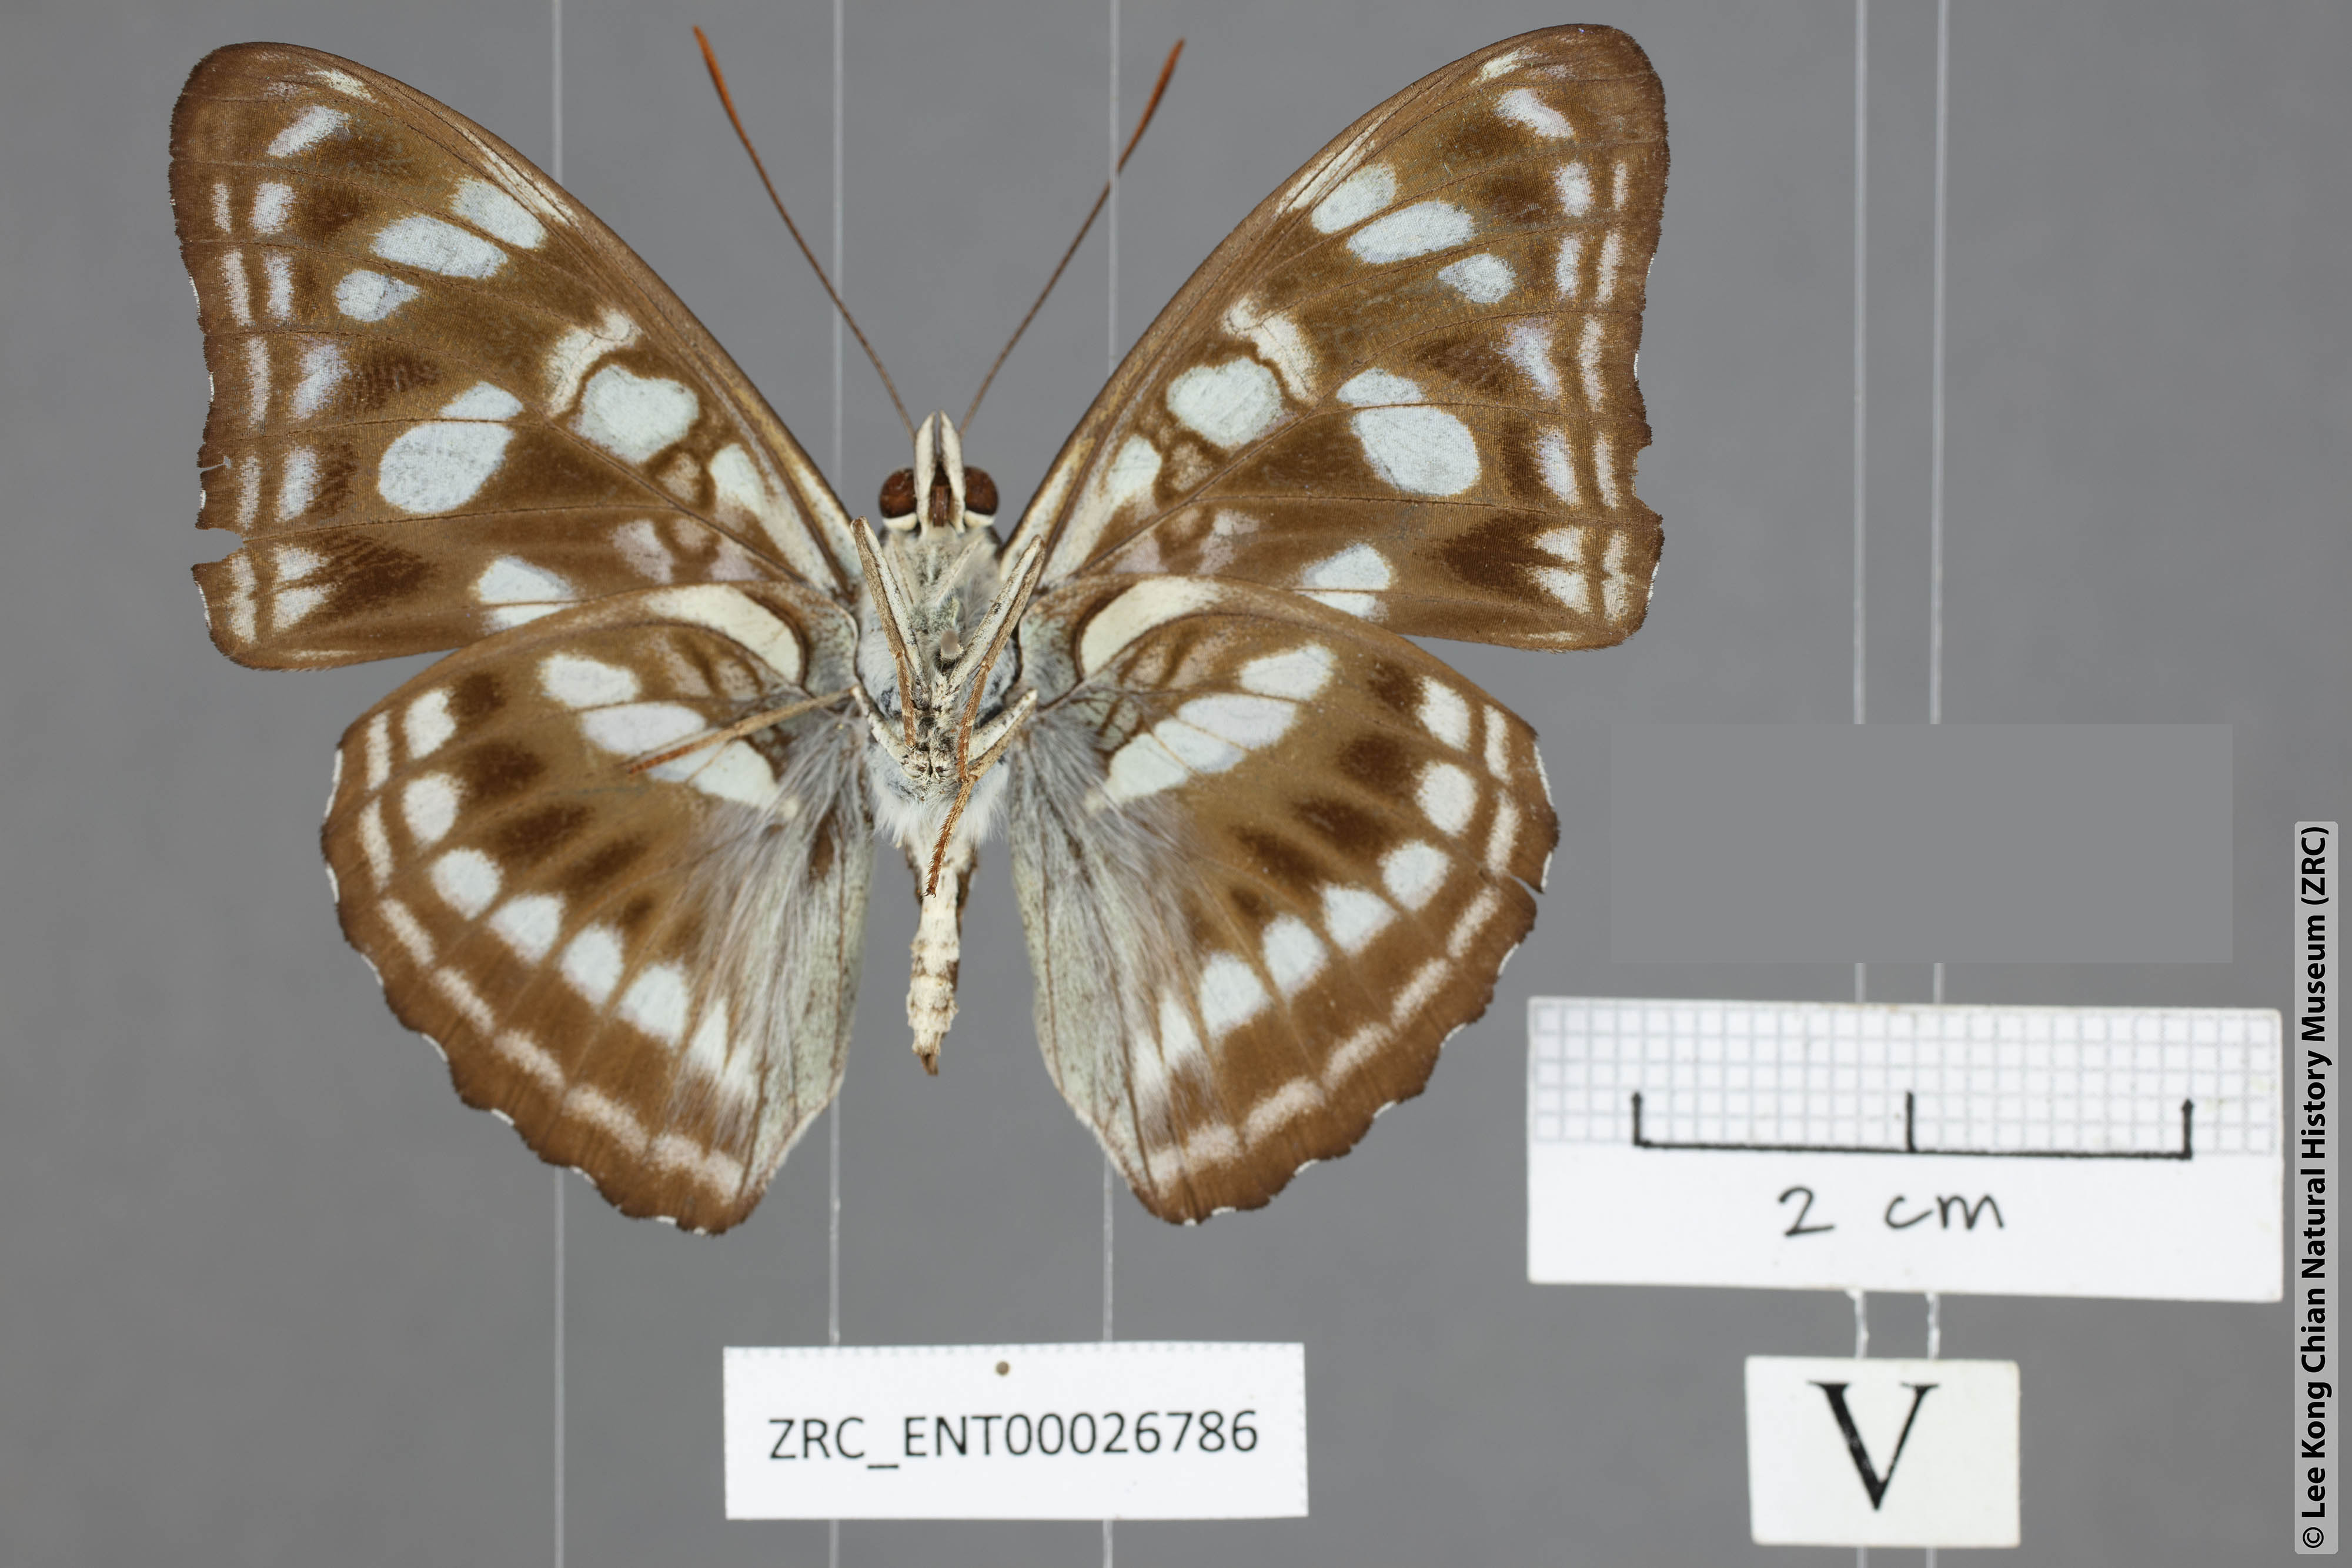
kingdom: Animalia
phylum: Arthropoda
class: Insecta
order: Lepidoptera
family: Nymphalidae
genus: Parathyma
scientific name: Parathyma ranga
